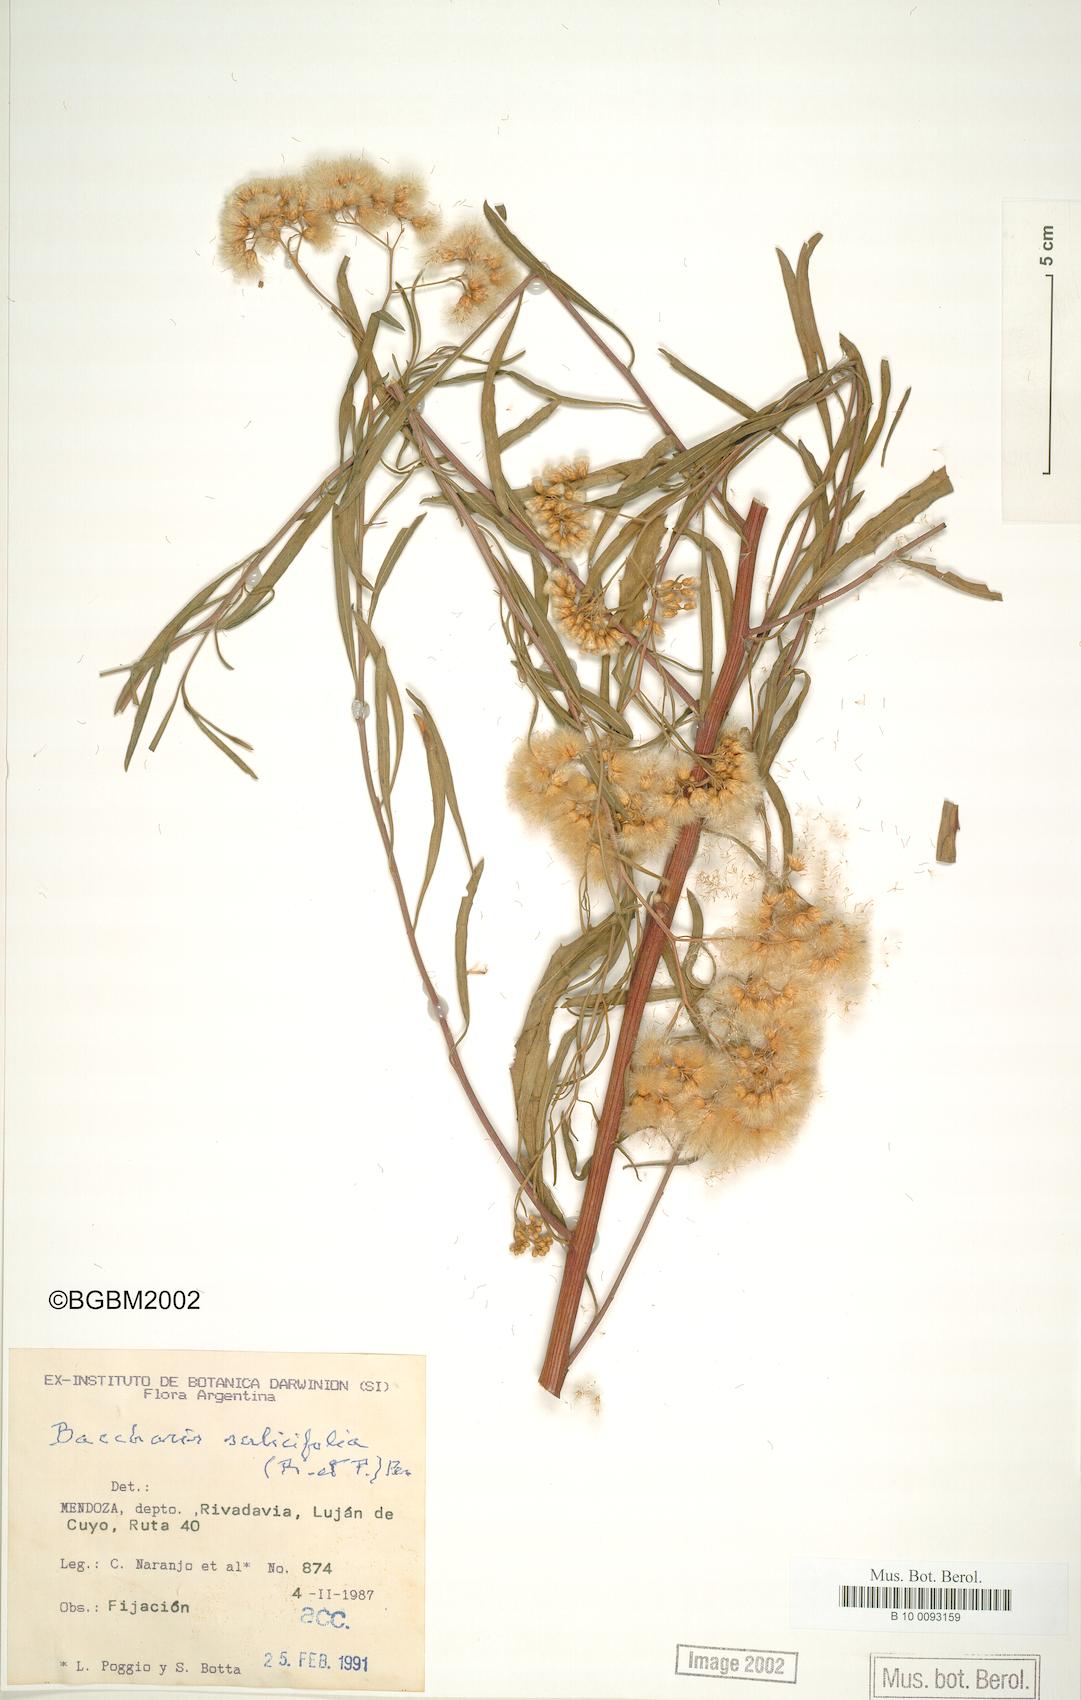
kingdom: Plantae
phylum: Tracheophyta
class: Magnoliopsida
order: Asterales
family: Asteraceae
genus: Baccharis
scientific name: Baccharis salicifolia
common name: Sticky baccharis
